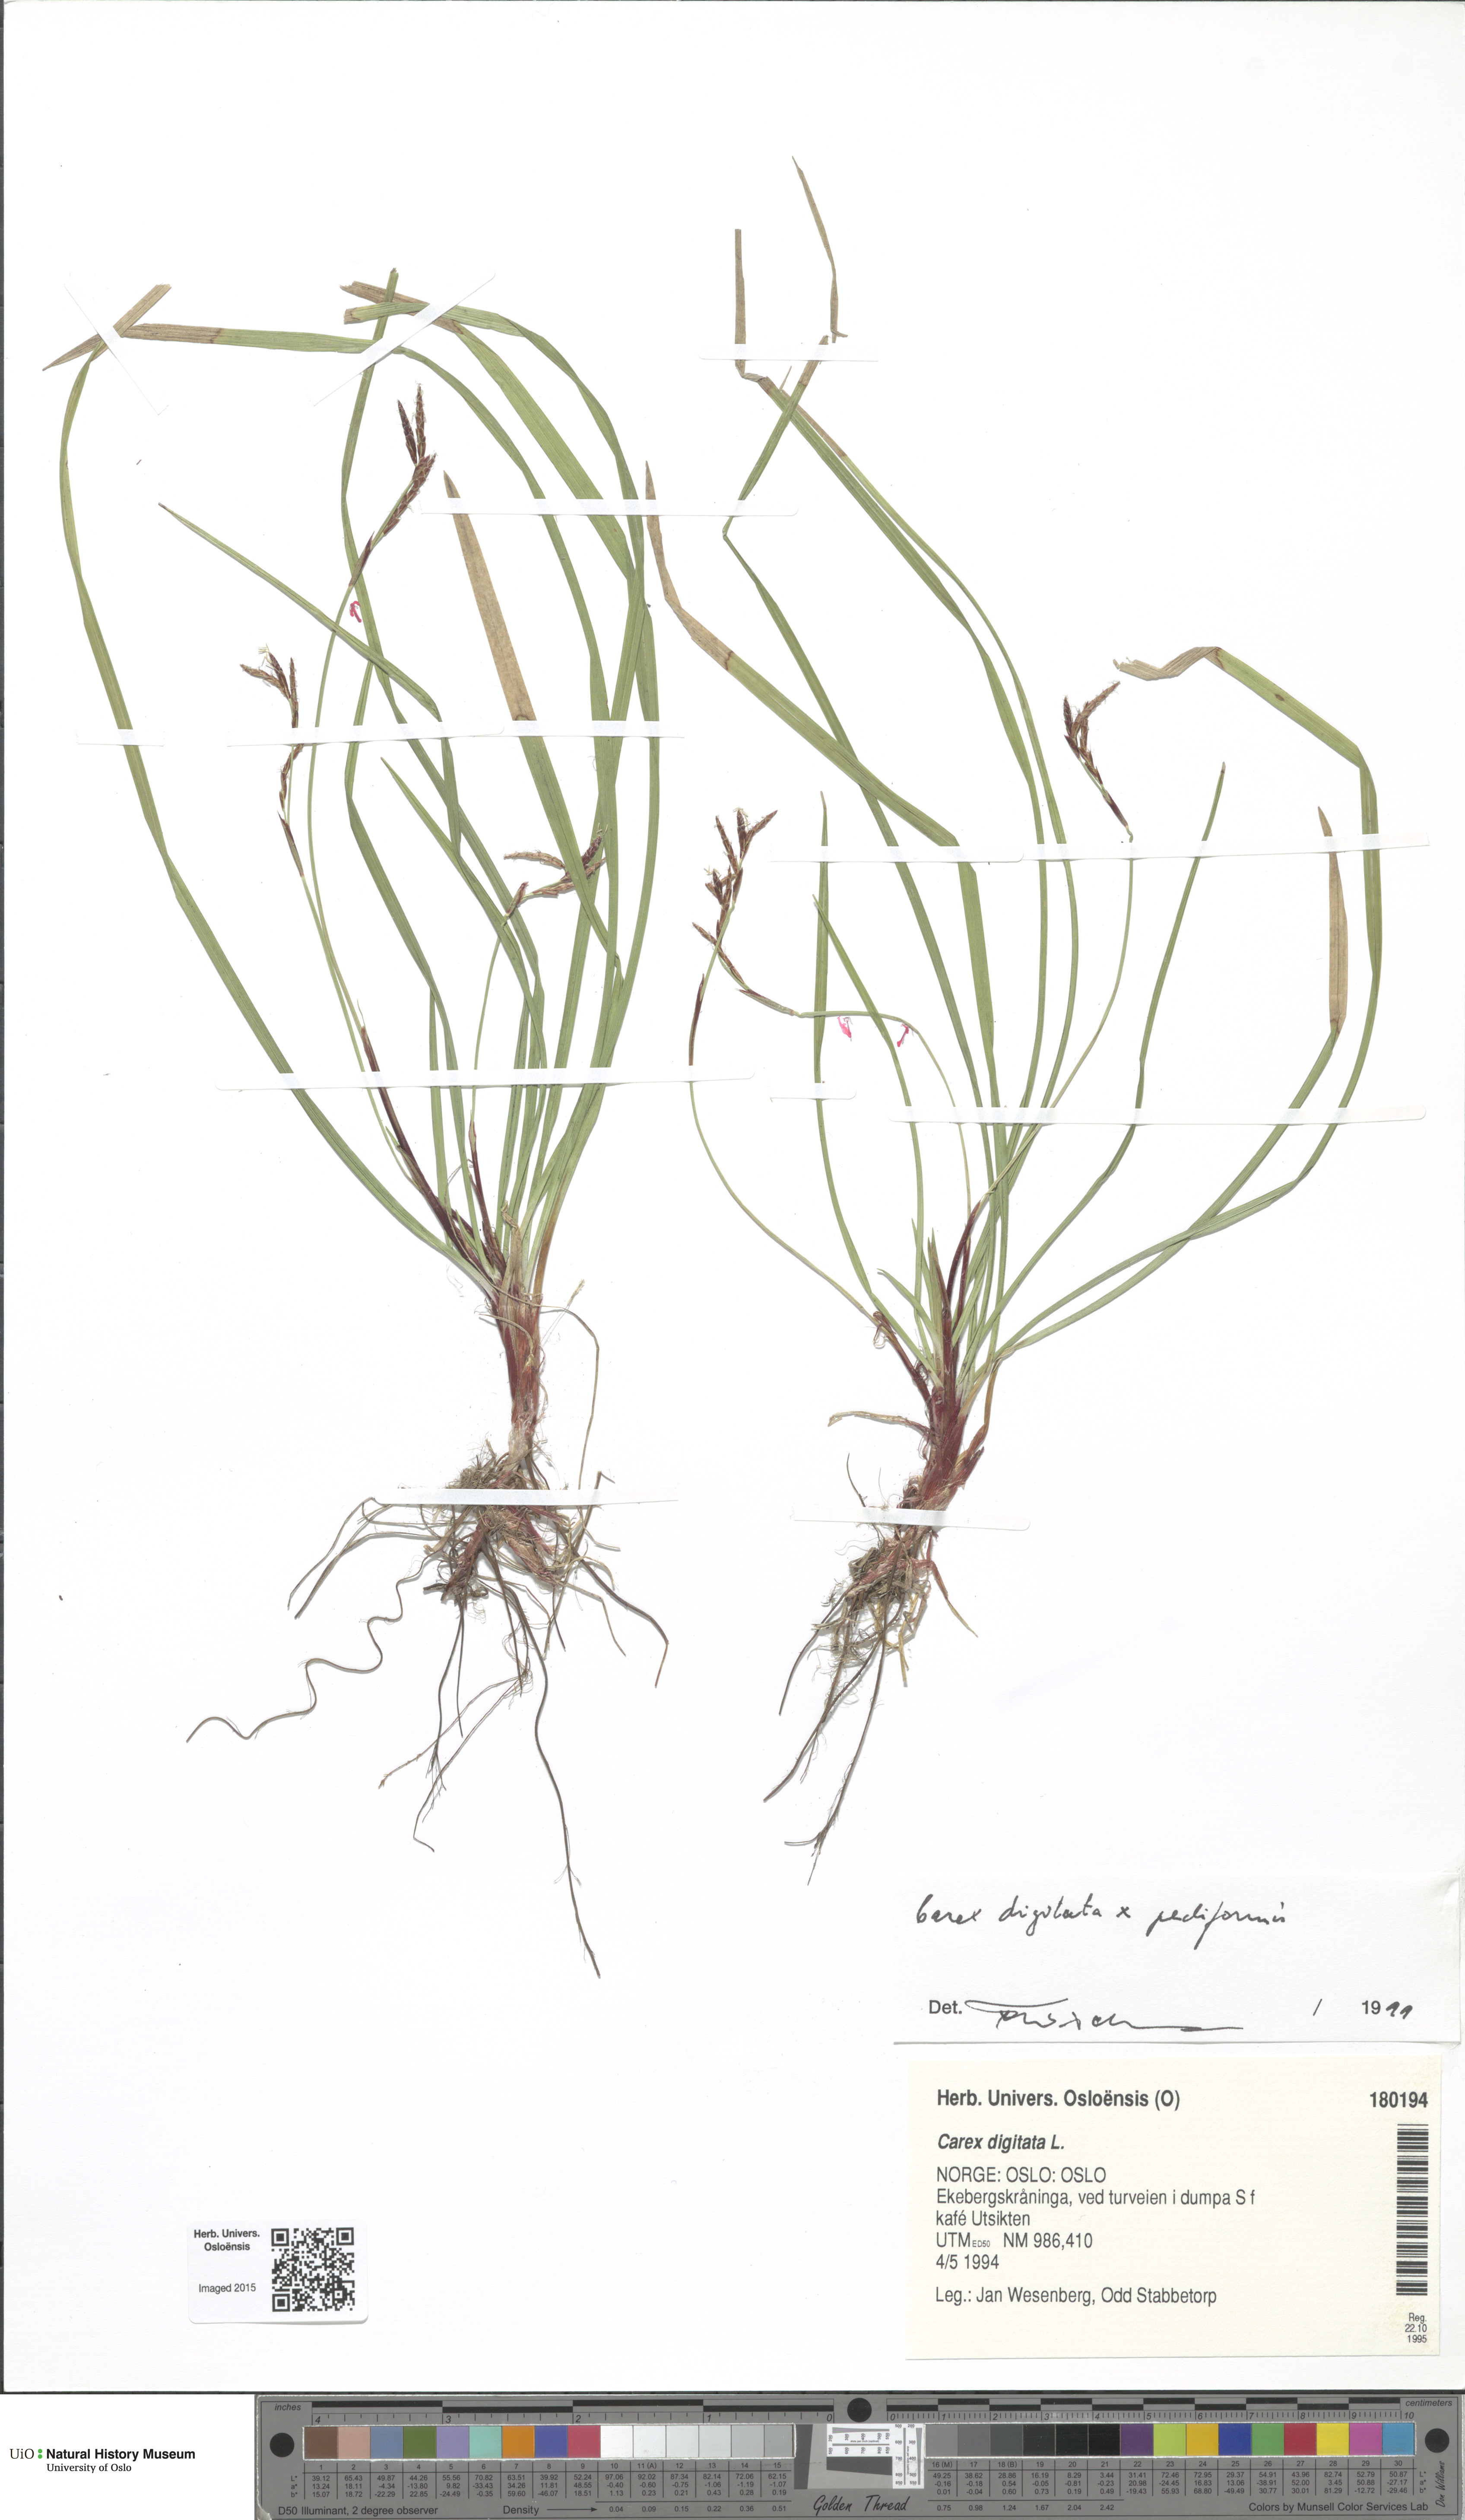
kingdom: Plantae
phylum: Tracheophyta
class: Liliopsida
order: Poales
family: Cyperaceae
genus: Carex
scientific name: Carex
